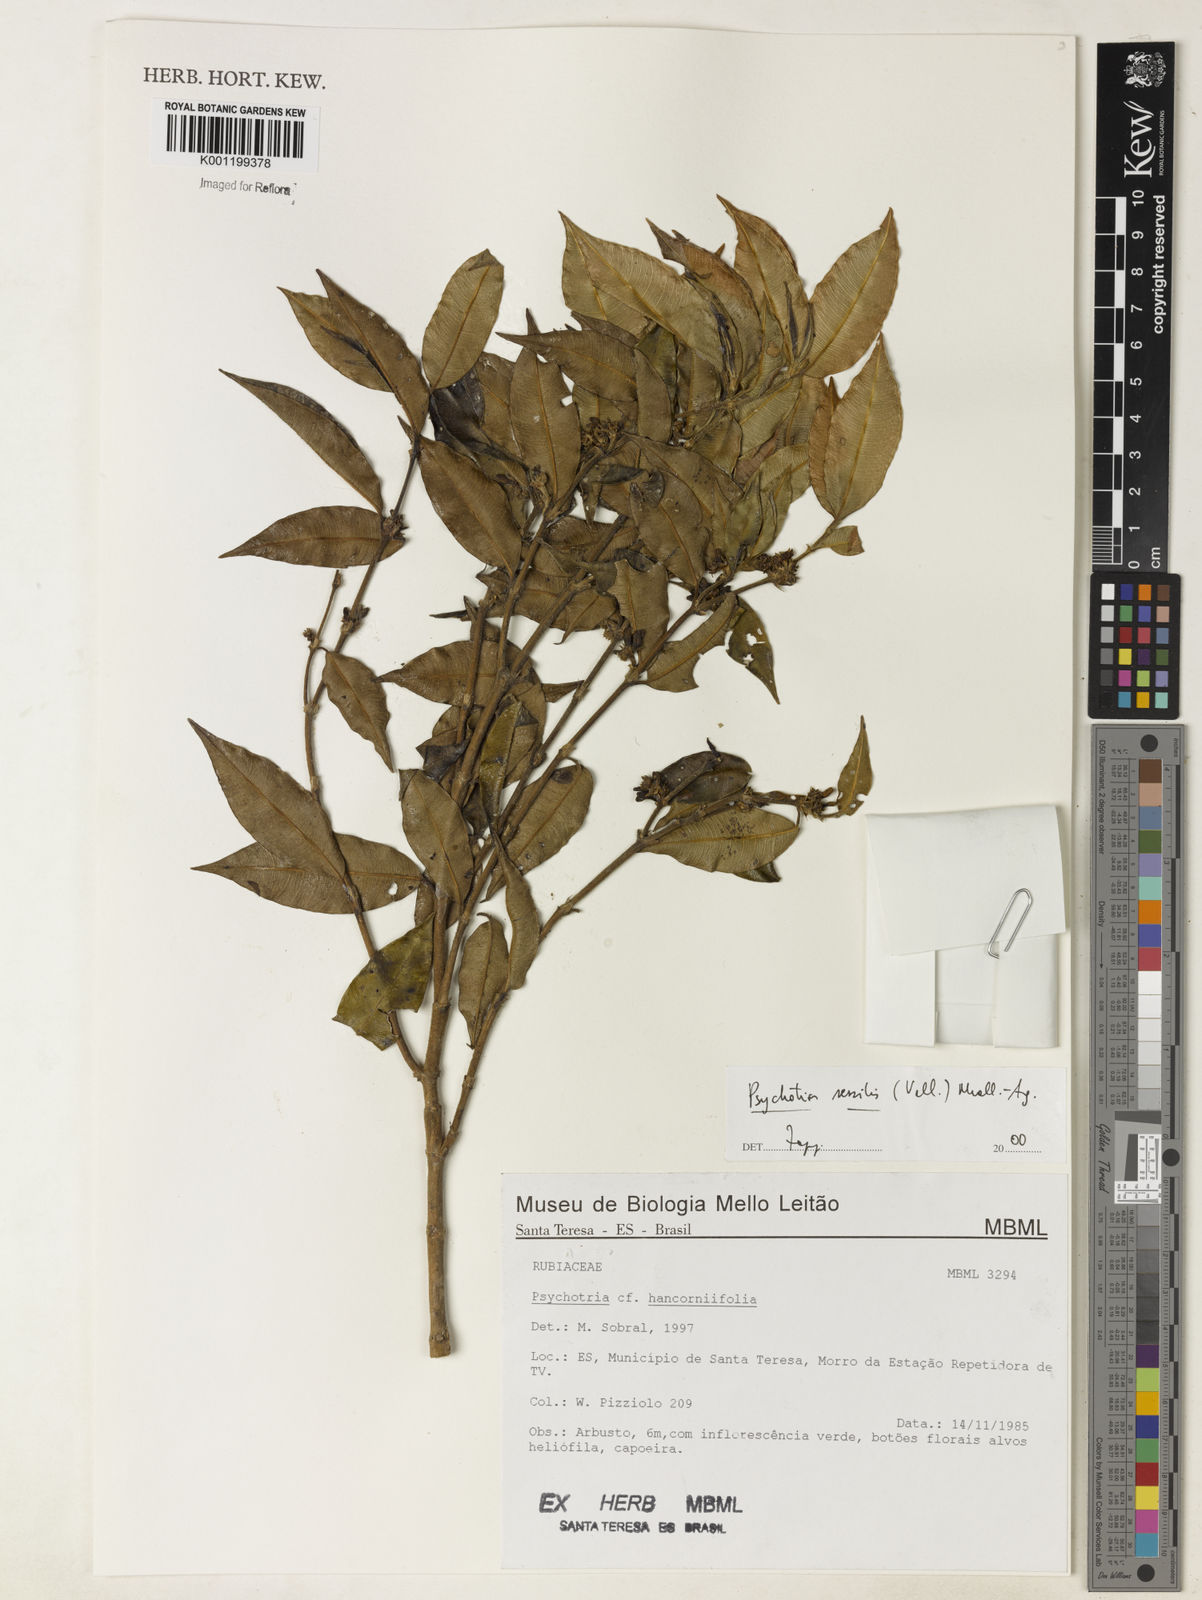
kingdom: Plantae
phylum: Tracheophyta
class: Magnoliopsida
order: Gentianales
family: Rubiaceae
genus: Rudgea
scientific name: Rudgea sessilis
